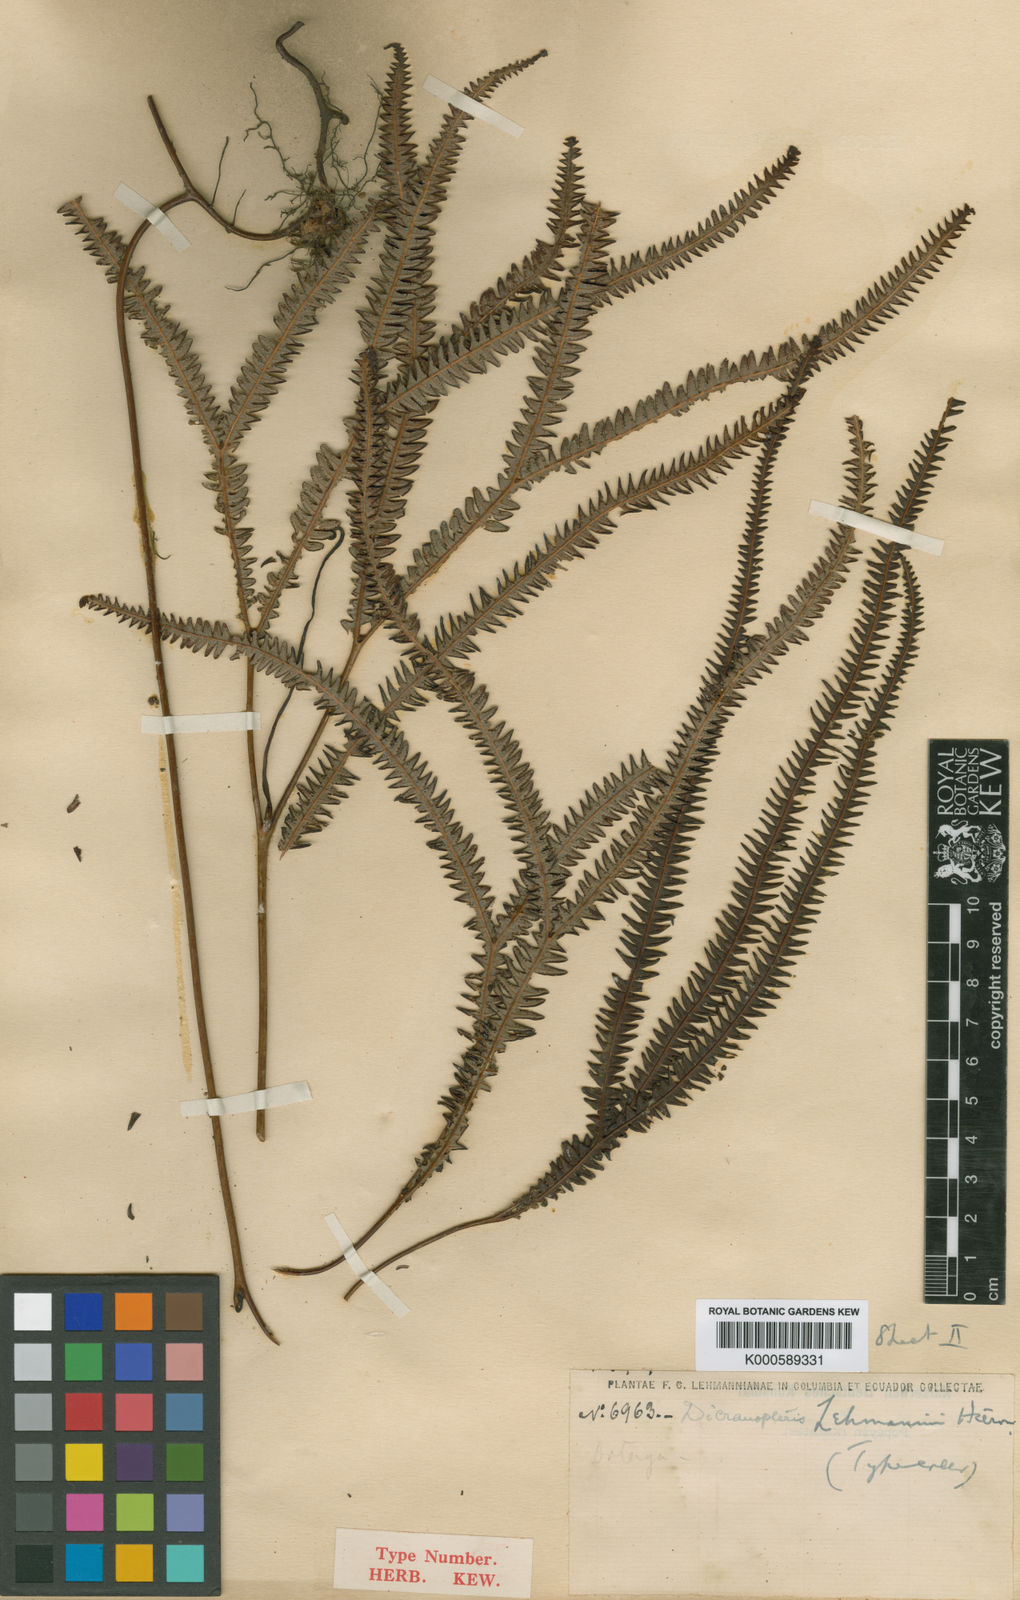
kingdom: Plantae
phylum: Tracheophyta
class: Polypodiopsida
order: Gleicheniales
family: Gleicheniaceae
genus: Sticherus
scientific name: Sticherus hypoleucus
